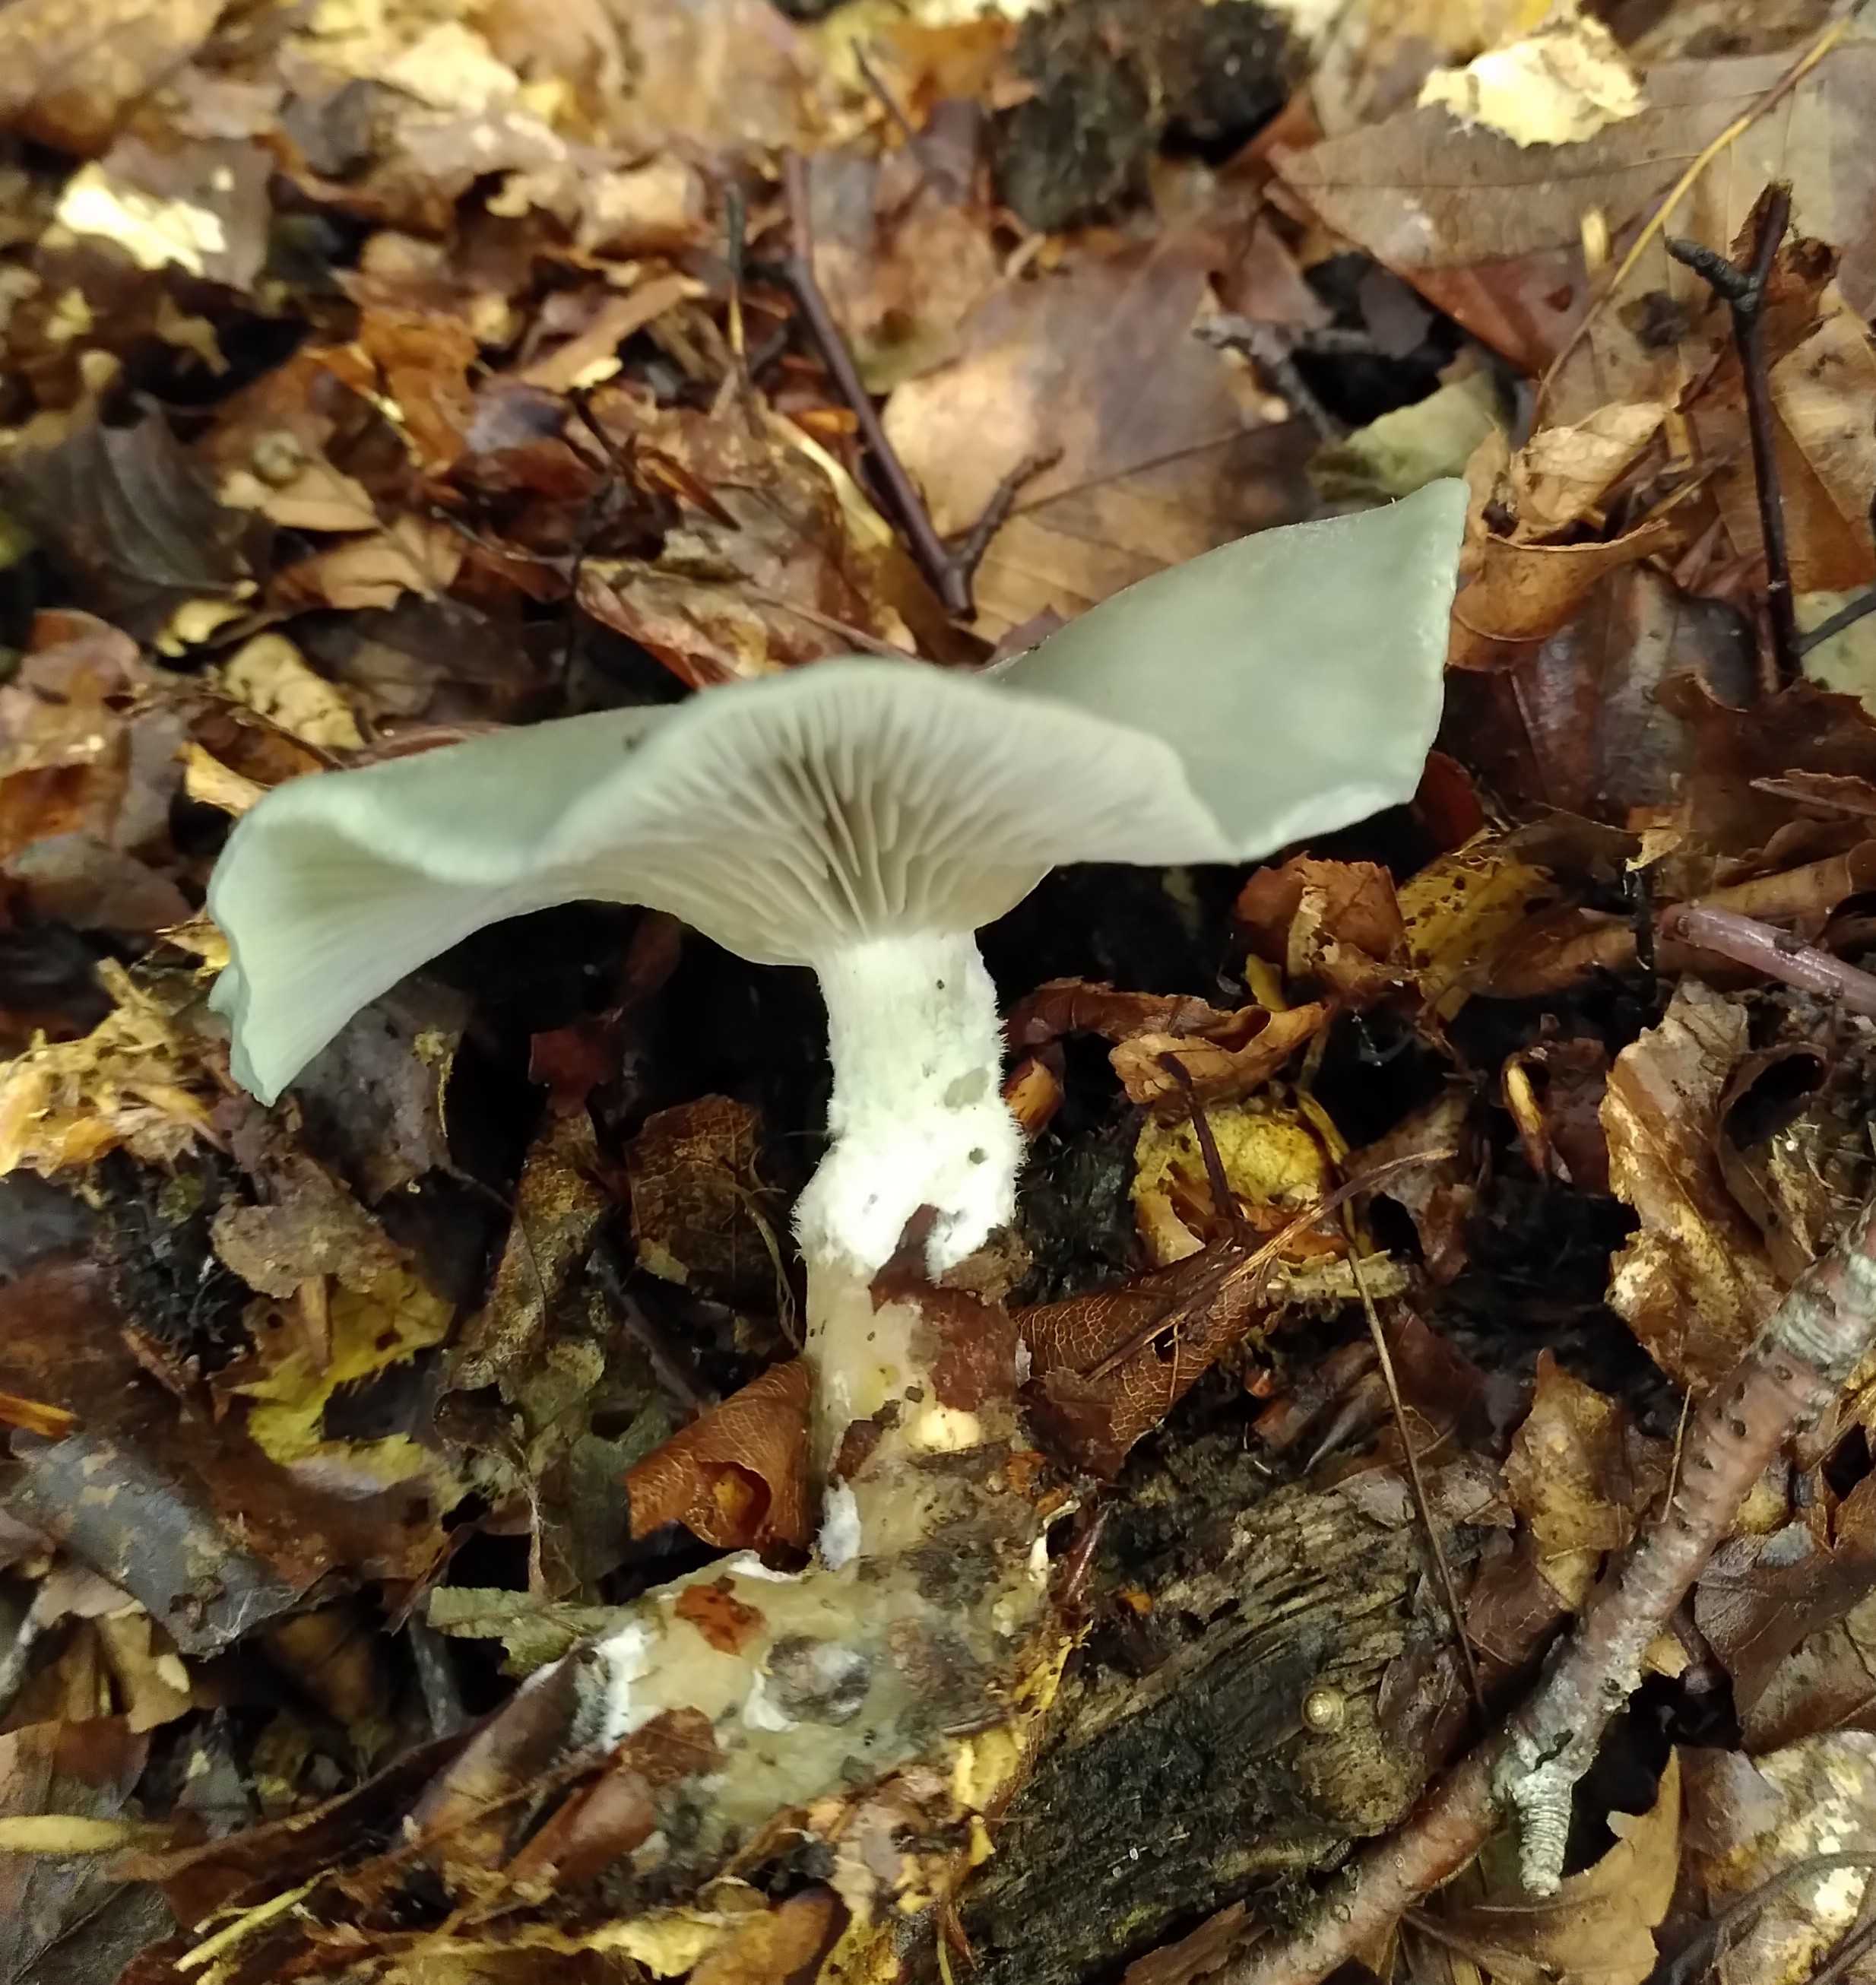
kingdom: Fungi
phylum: Basidiomycota
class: Agaricomycetes
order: Agaricales
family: Tricholomataceae
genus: Clitocybe
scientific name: Clitocybe odora
